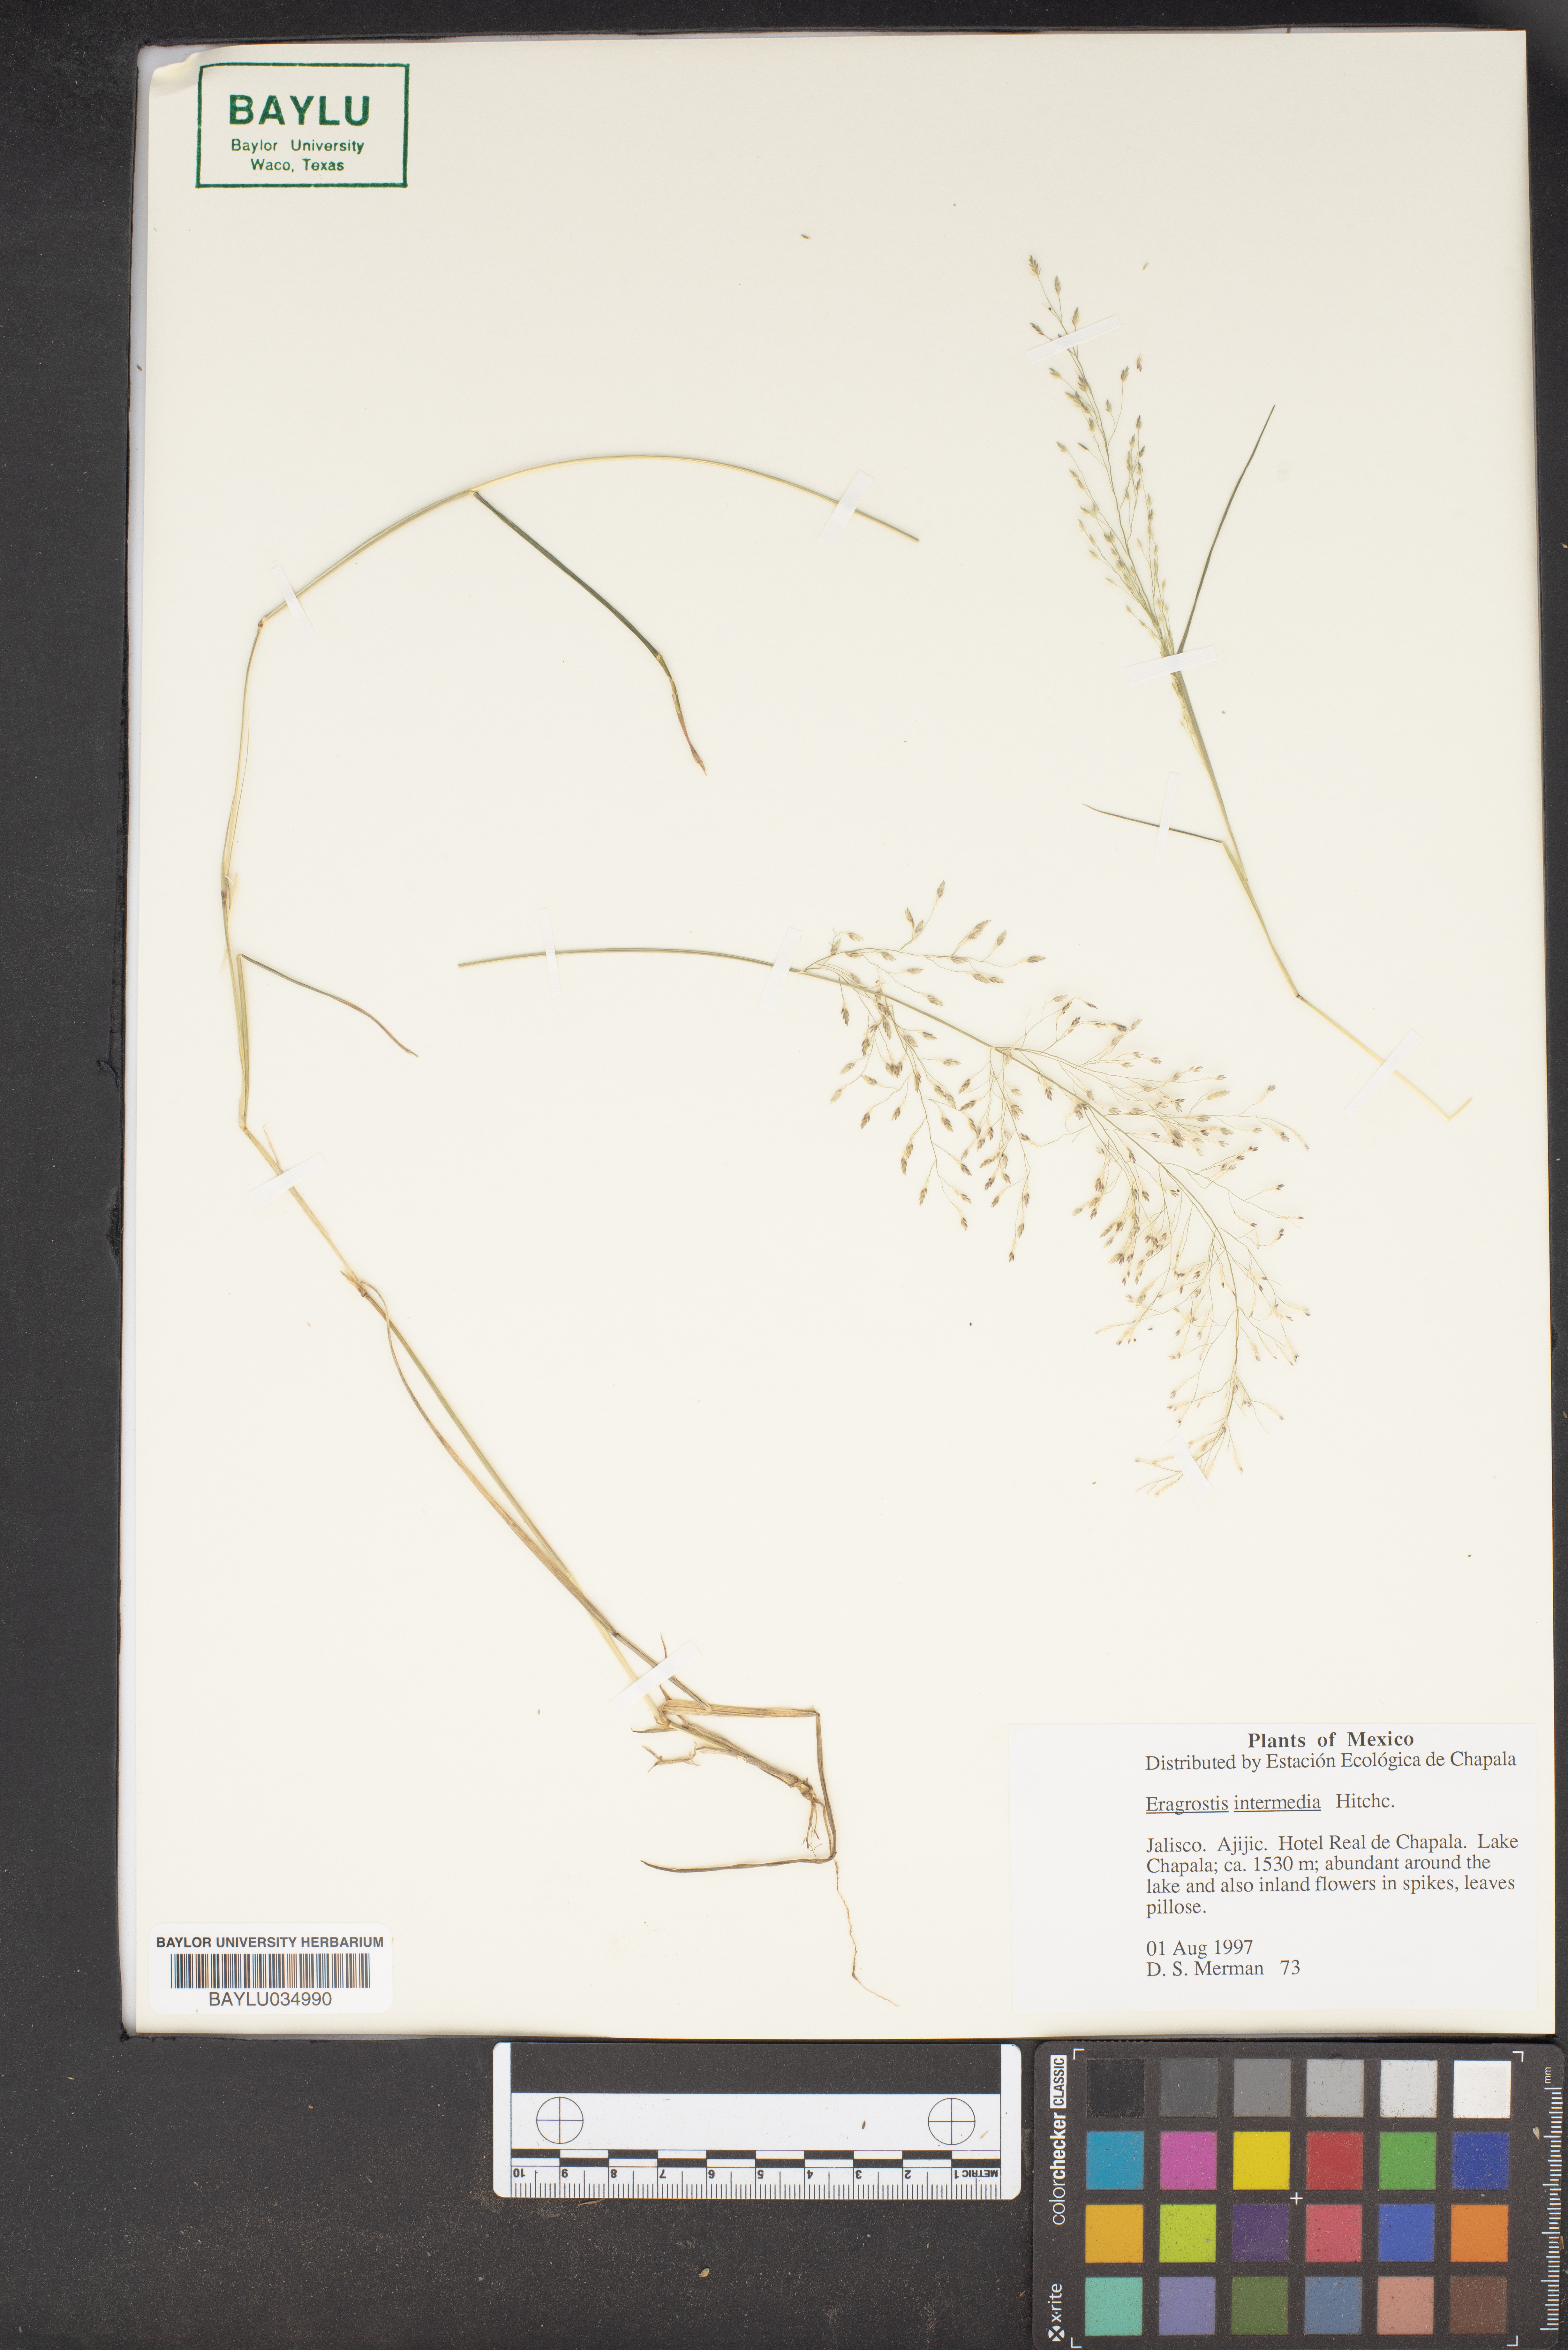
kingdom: Plantae
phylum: Tracheophyta
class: Liliopsida
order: Poales
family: Poaceae
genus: Eragrostis
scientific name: Eragrostis intermedia
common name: Plains love grass
